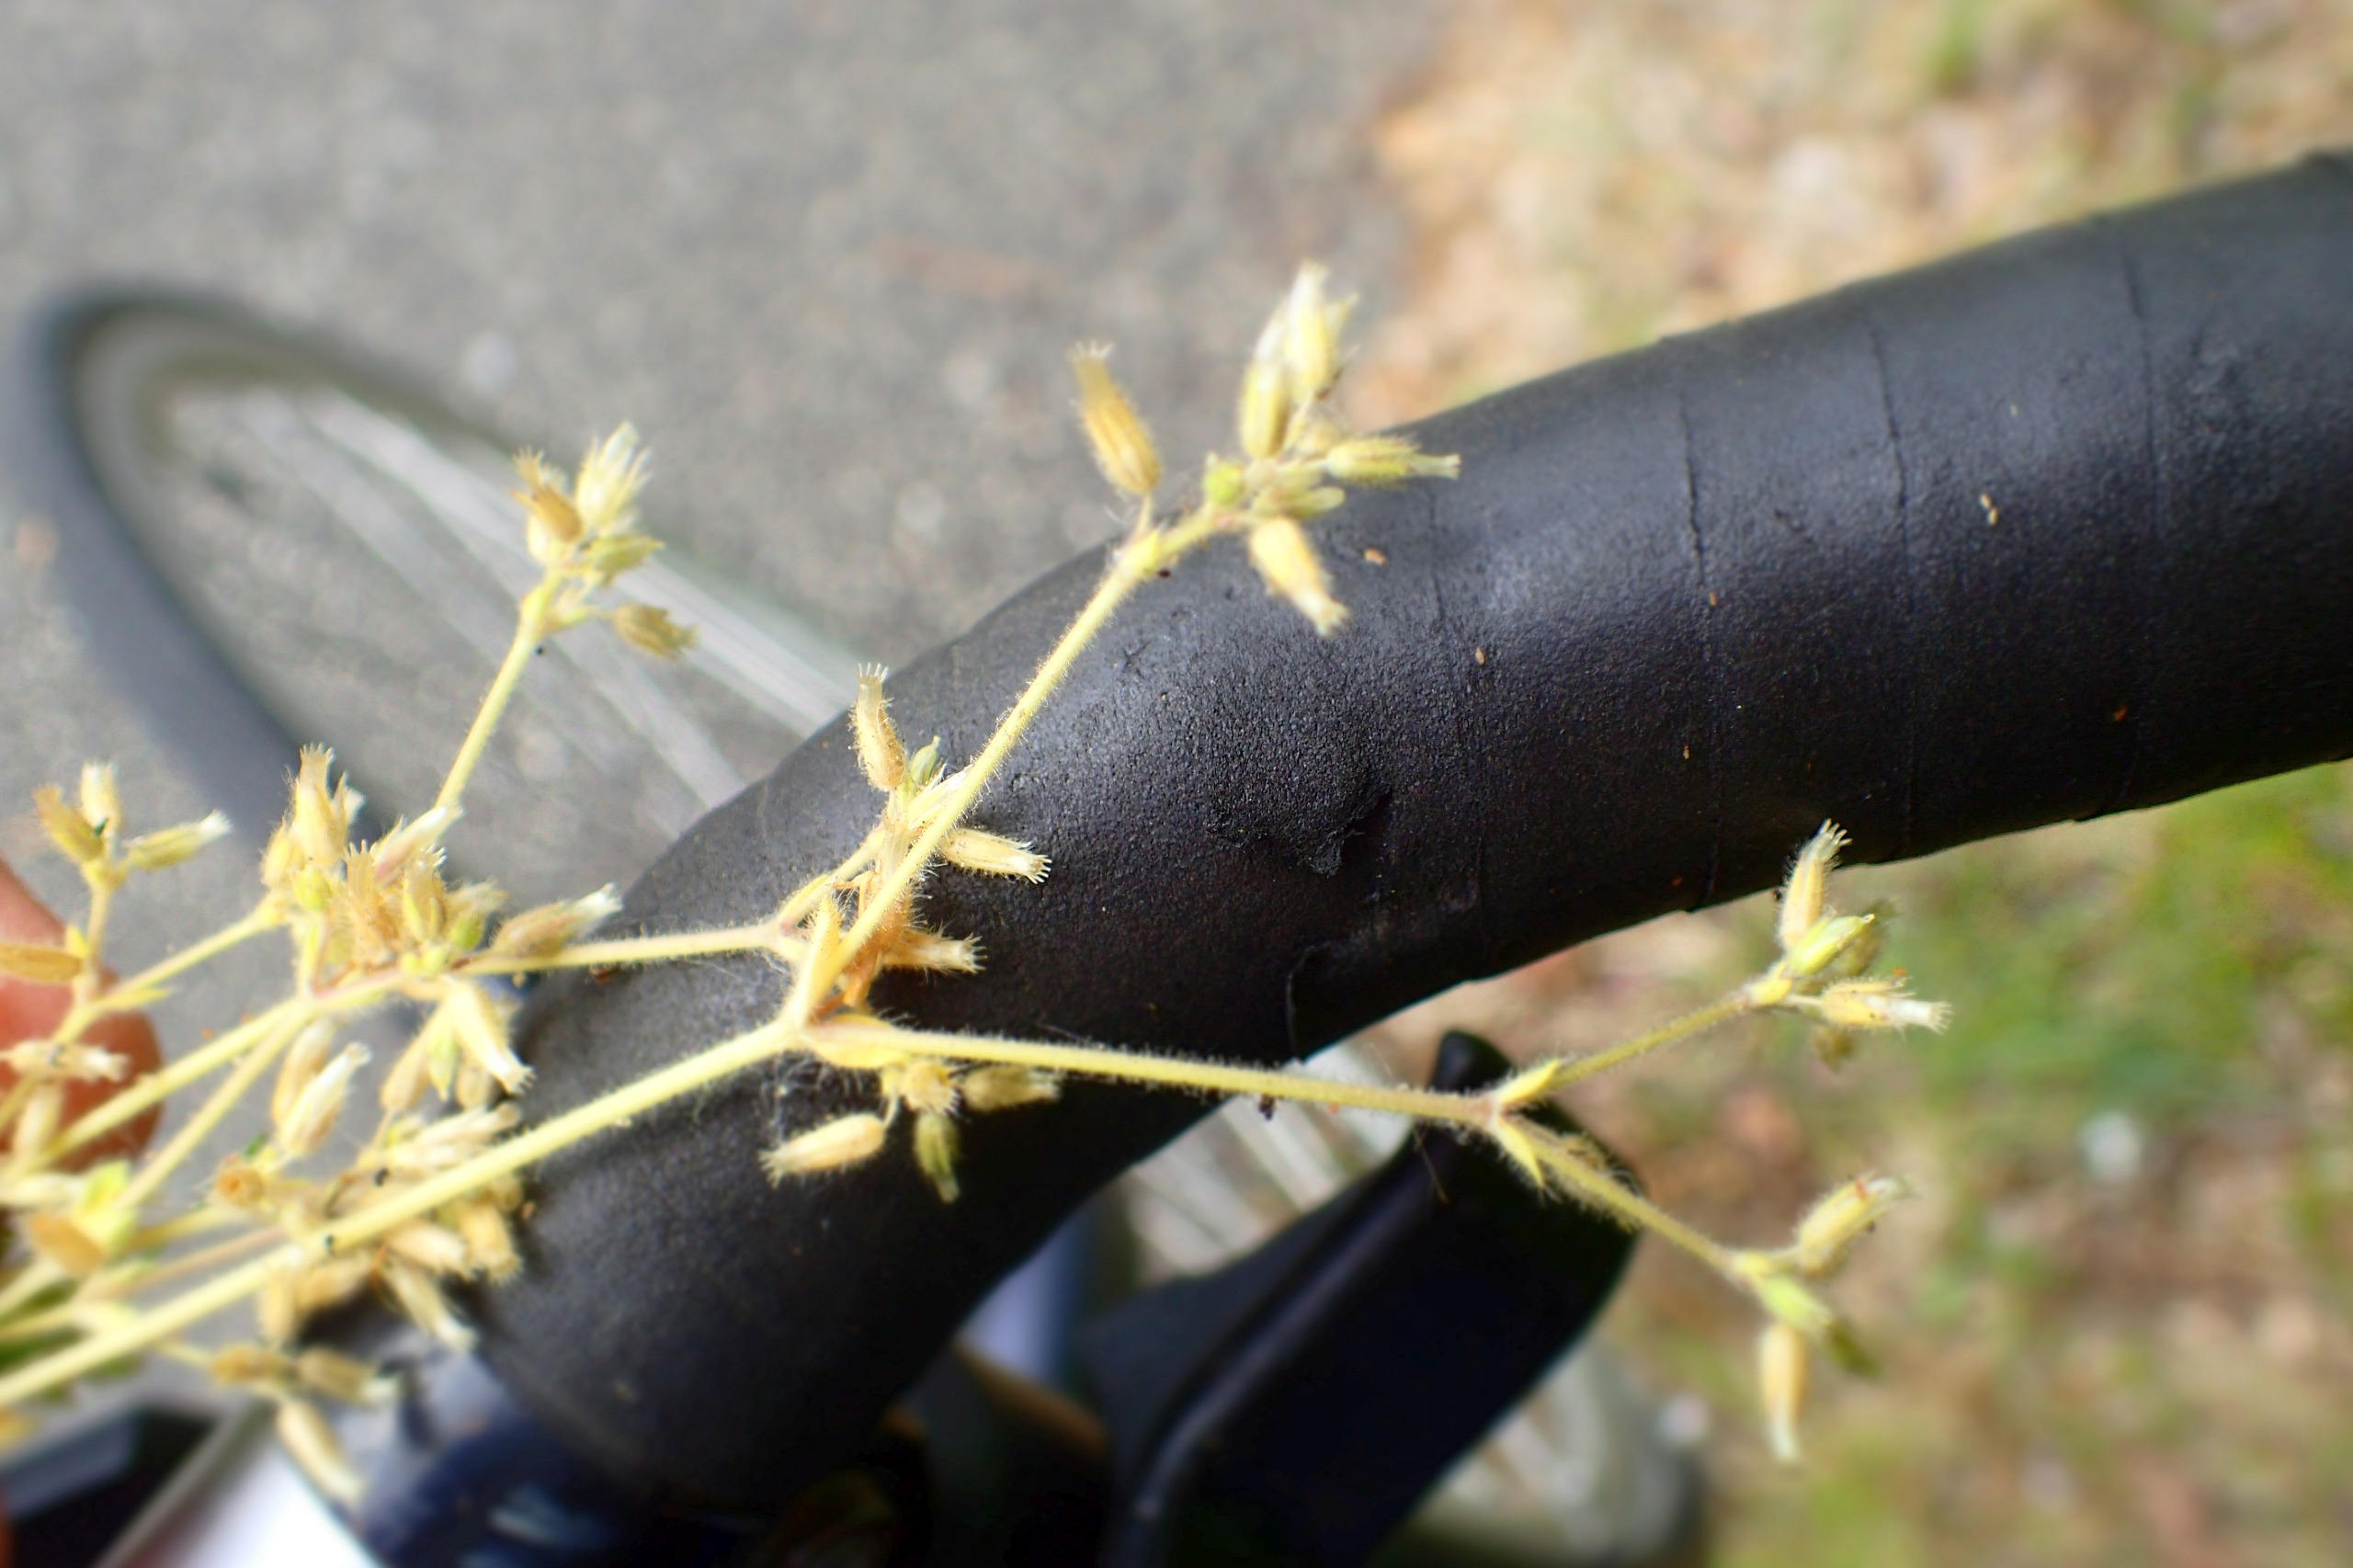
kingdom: Plantae
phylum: Tracheophyta
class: Magnoliopsida
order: Caryophyllales
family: Caryophyllaceae
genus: Cerastium
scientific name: Cerastium glomeratum
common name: Opret hønsetarm
